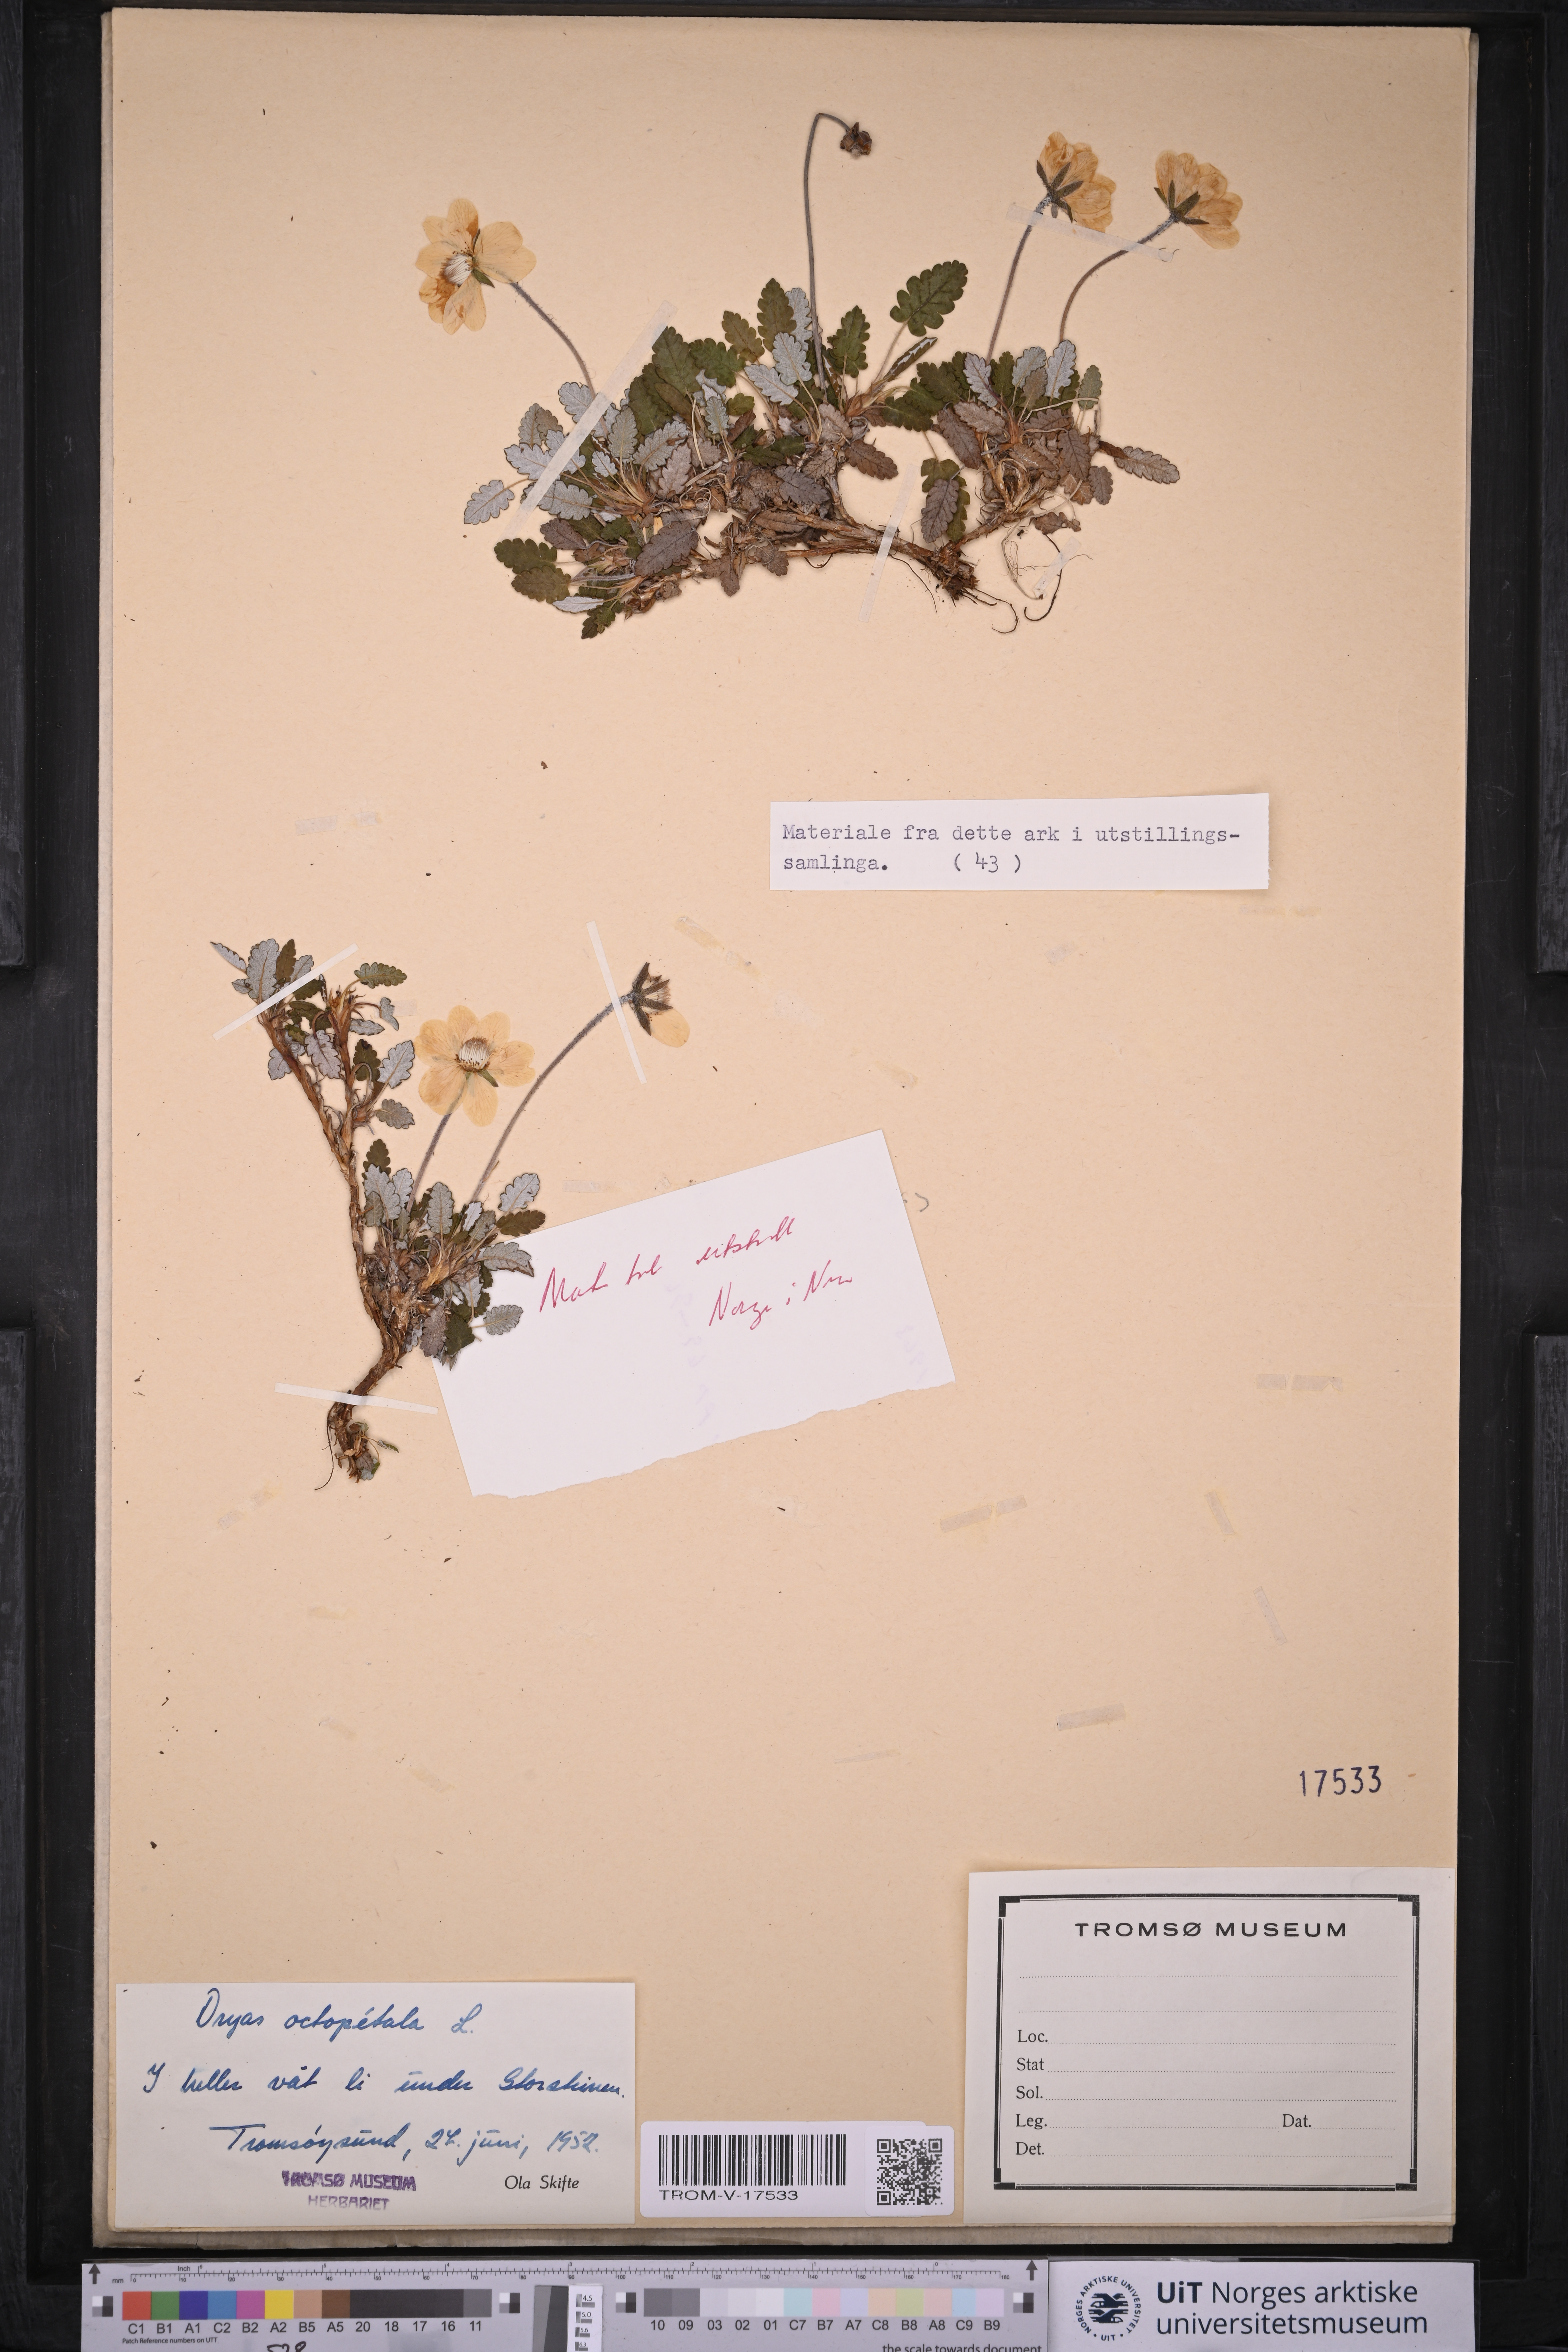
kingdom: Plantae
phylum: Tracheophyta
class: Magnoliopsida
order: Rosales
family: Rosaceae
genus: Dryas
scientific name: Dryas octopetala
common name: Eight-petal mountain-avens
